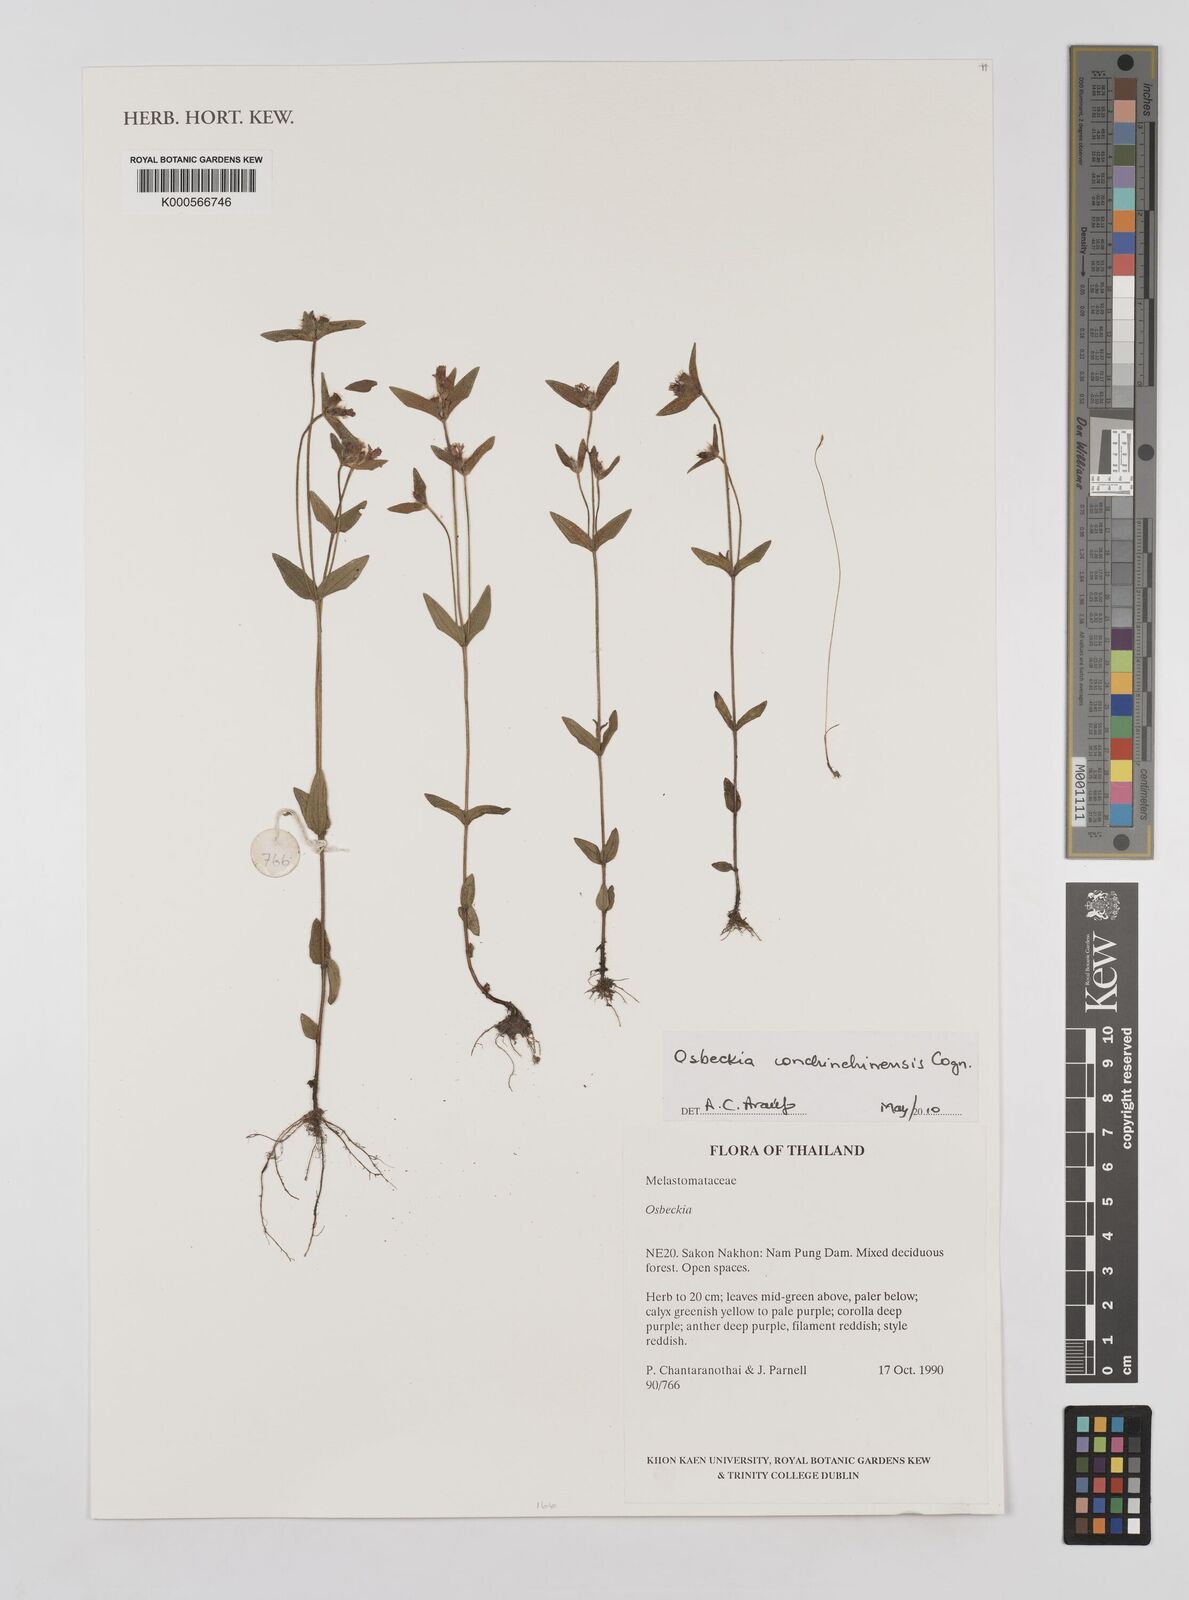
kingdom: Plantae
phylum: Tracheophyta
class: Magnoliopsida
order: Myrtales
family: Melastomataceae
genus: Osbeckia
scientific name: Osbeckia
